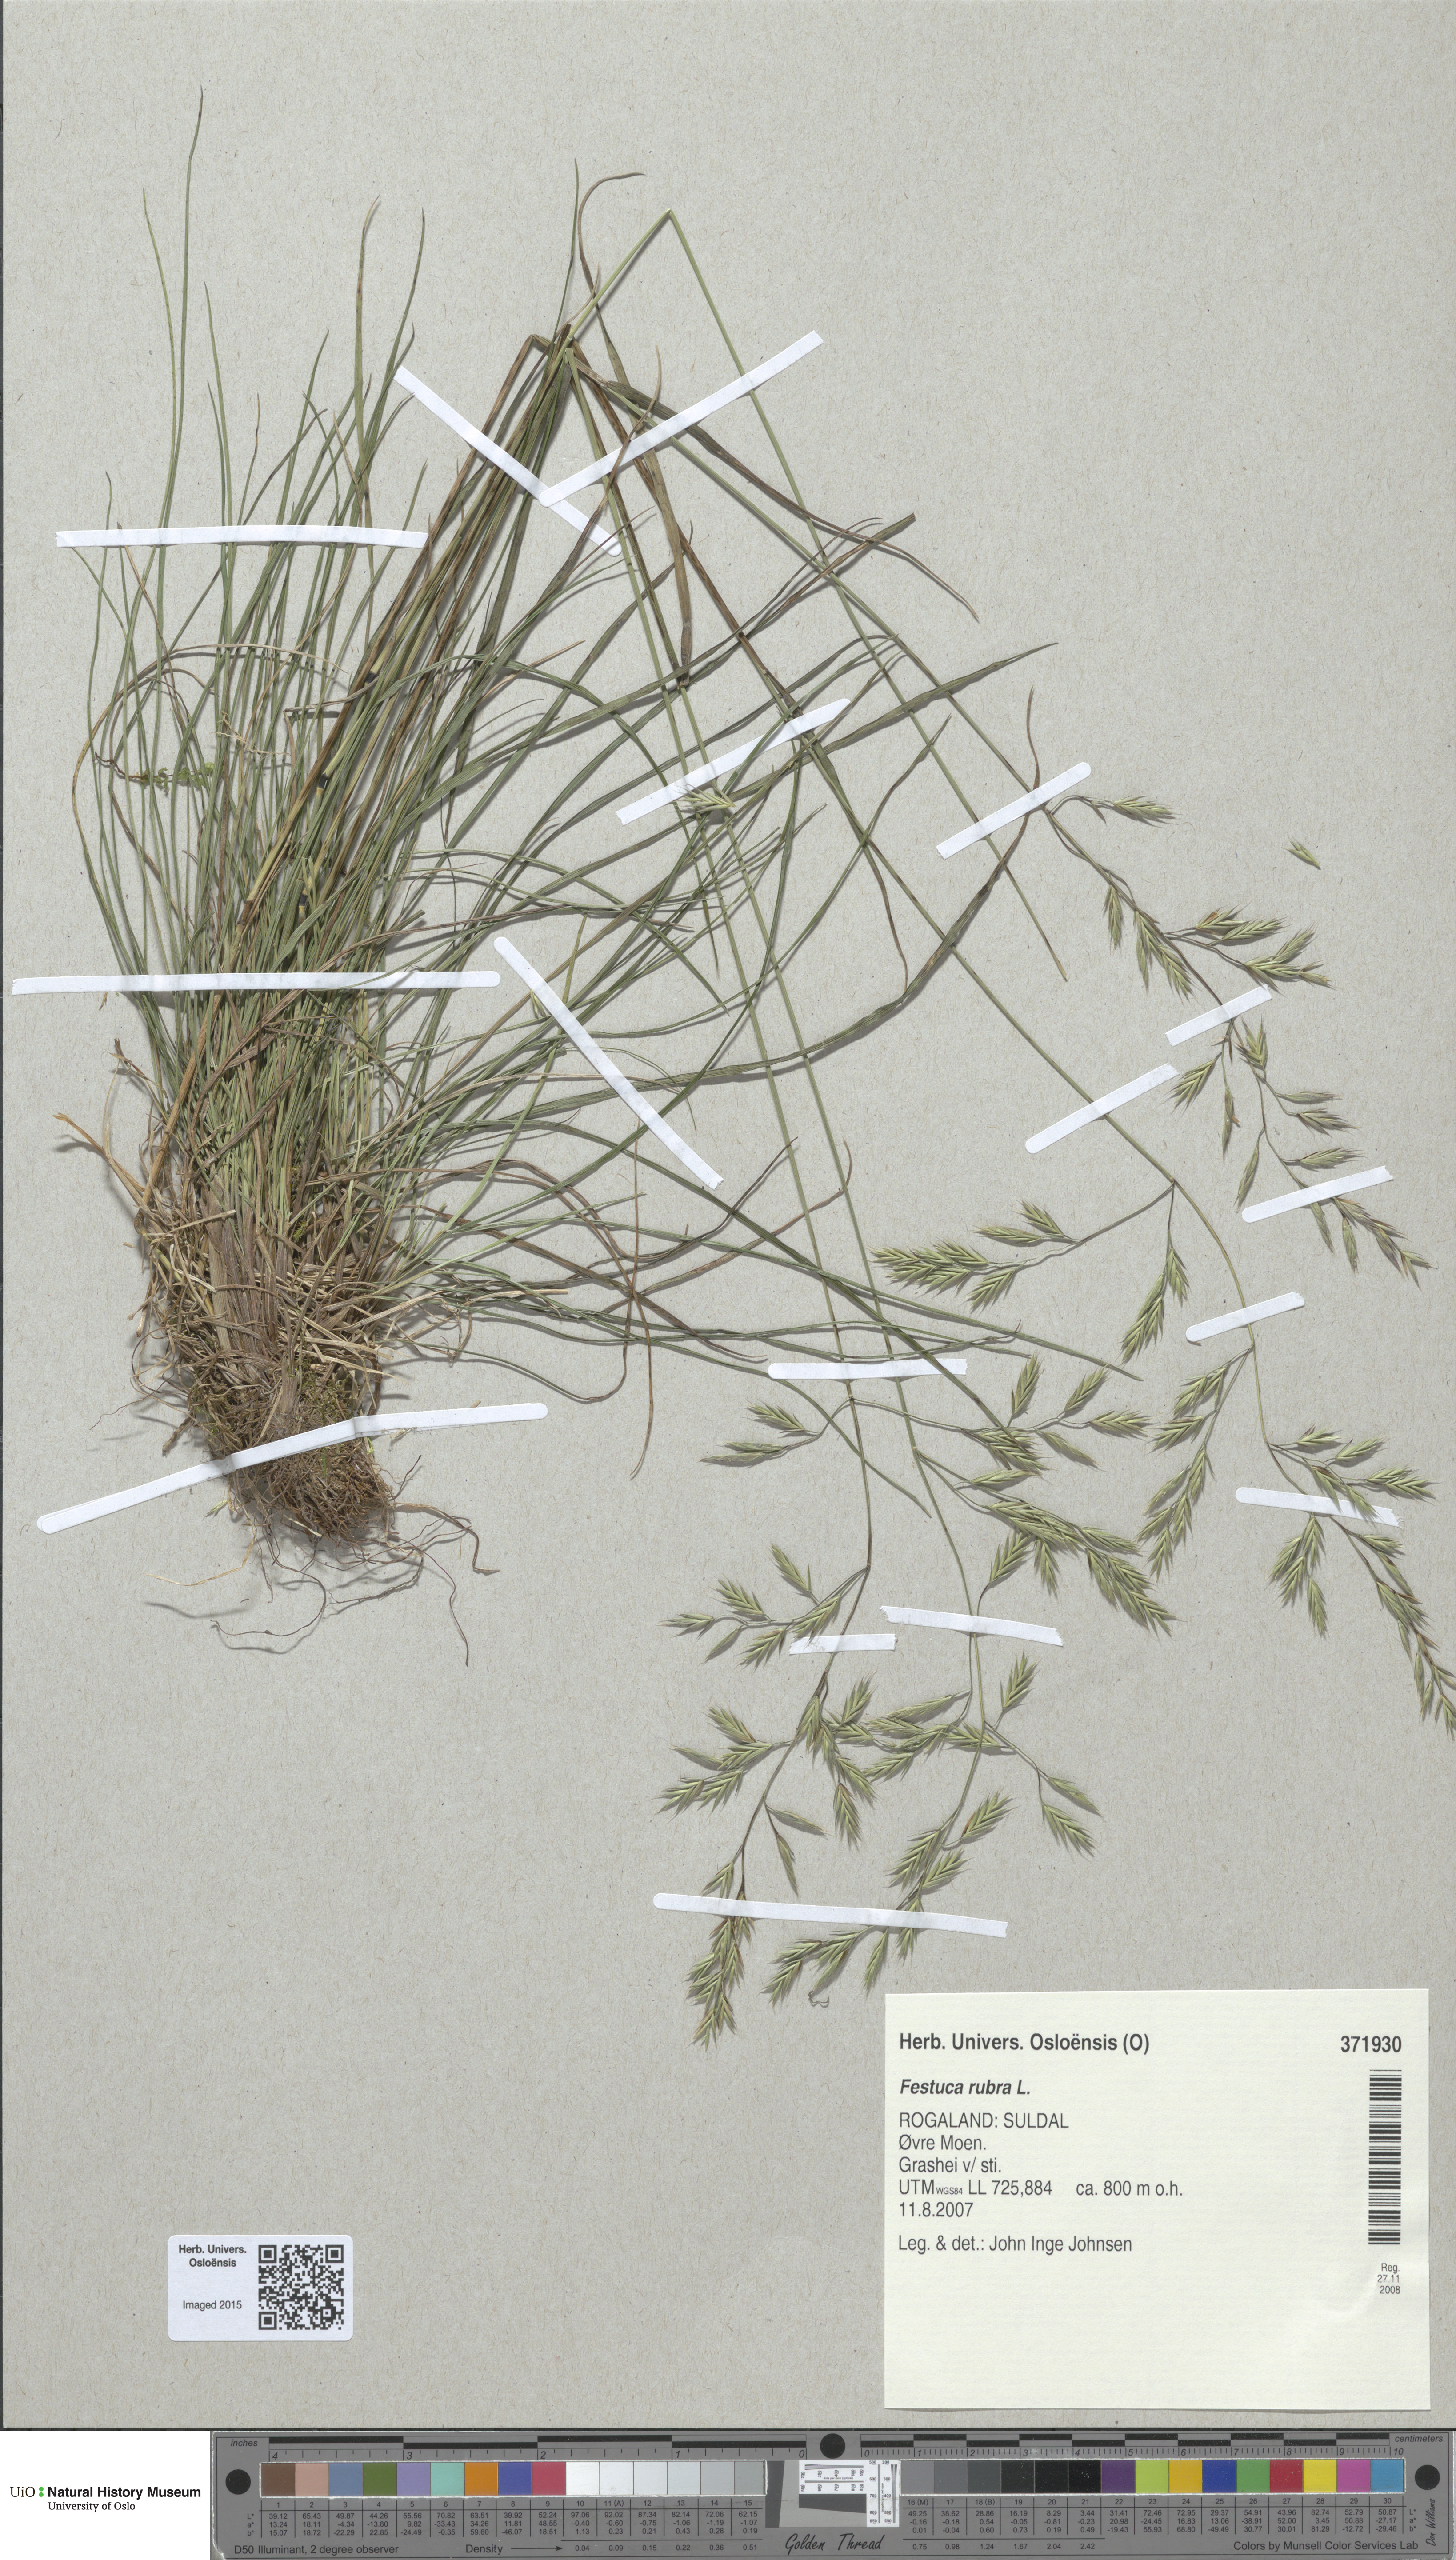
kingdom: Plantae
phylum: Tracheophyta
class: Liliopsida
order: Poales
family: Poaceae
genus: Festuca
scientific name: Festuca rubra
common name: Red fescue
